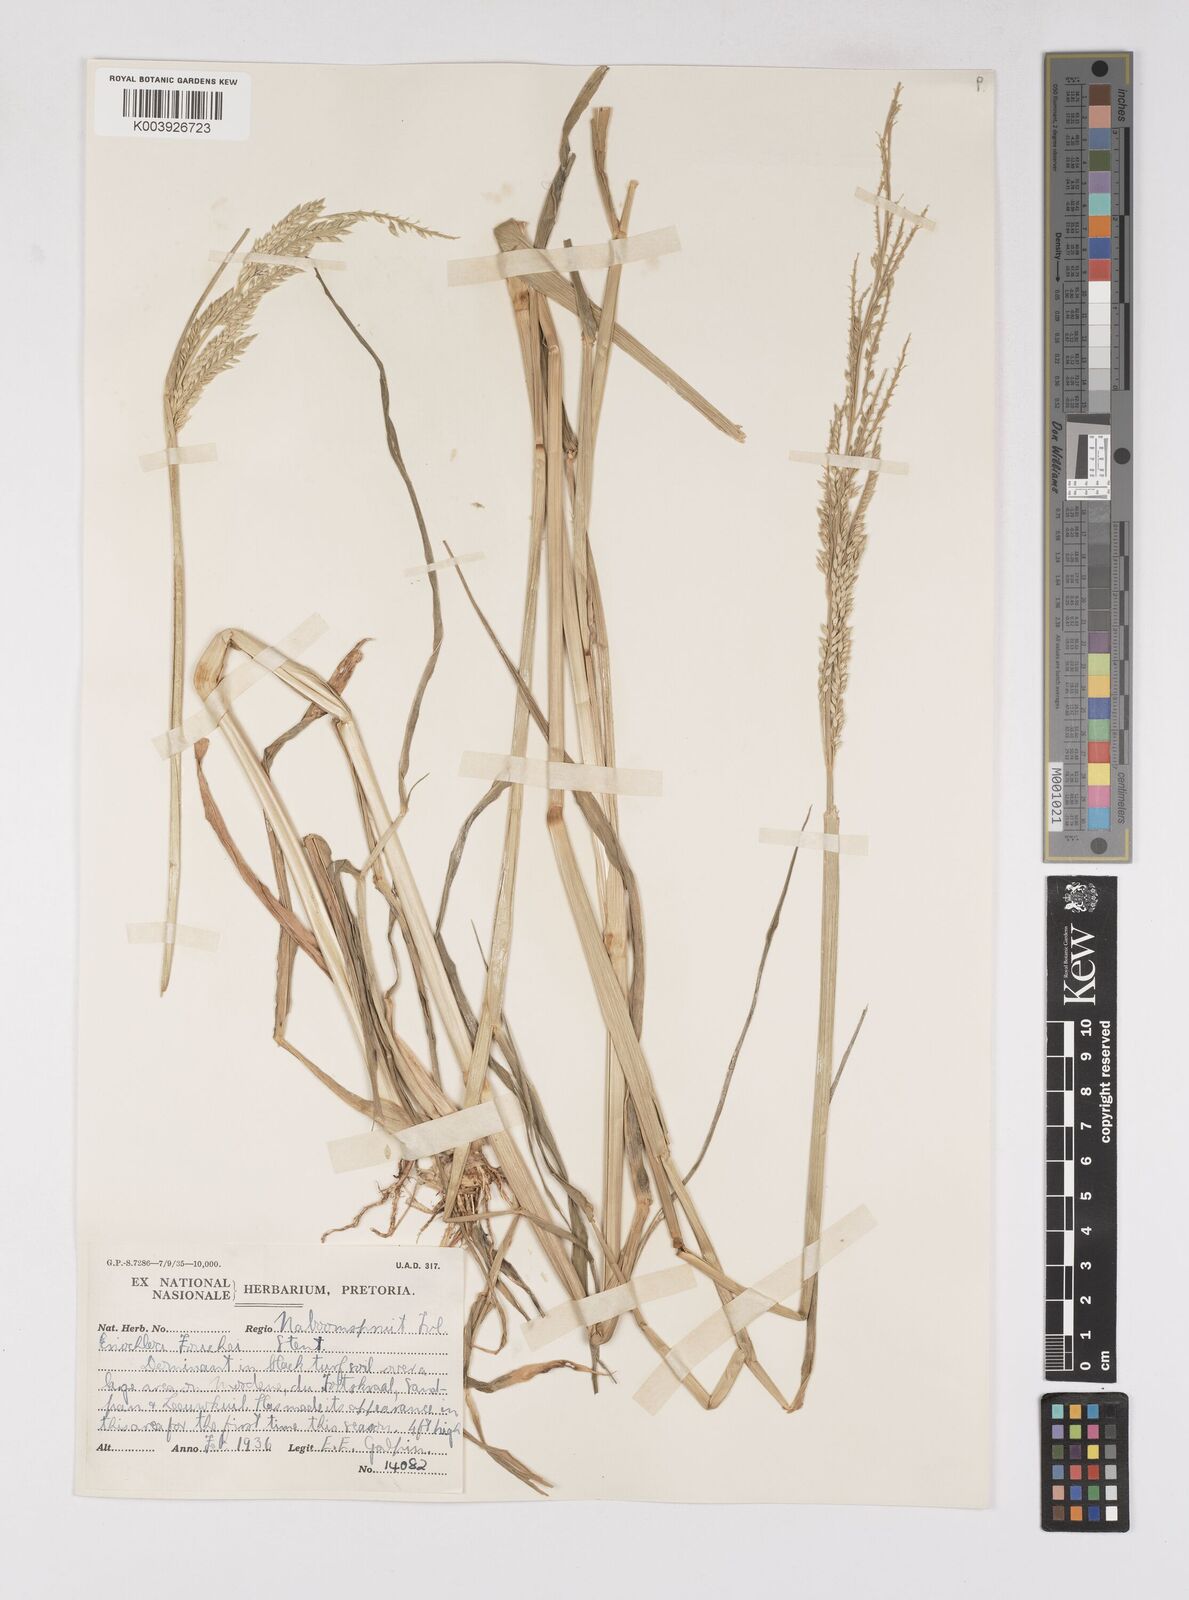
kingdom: Plantae
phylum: Tracheophyta
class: Liliopsida
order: Poales
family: Poaceae
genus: Eriochloa
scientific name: Eriochloa barbatus
